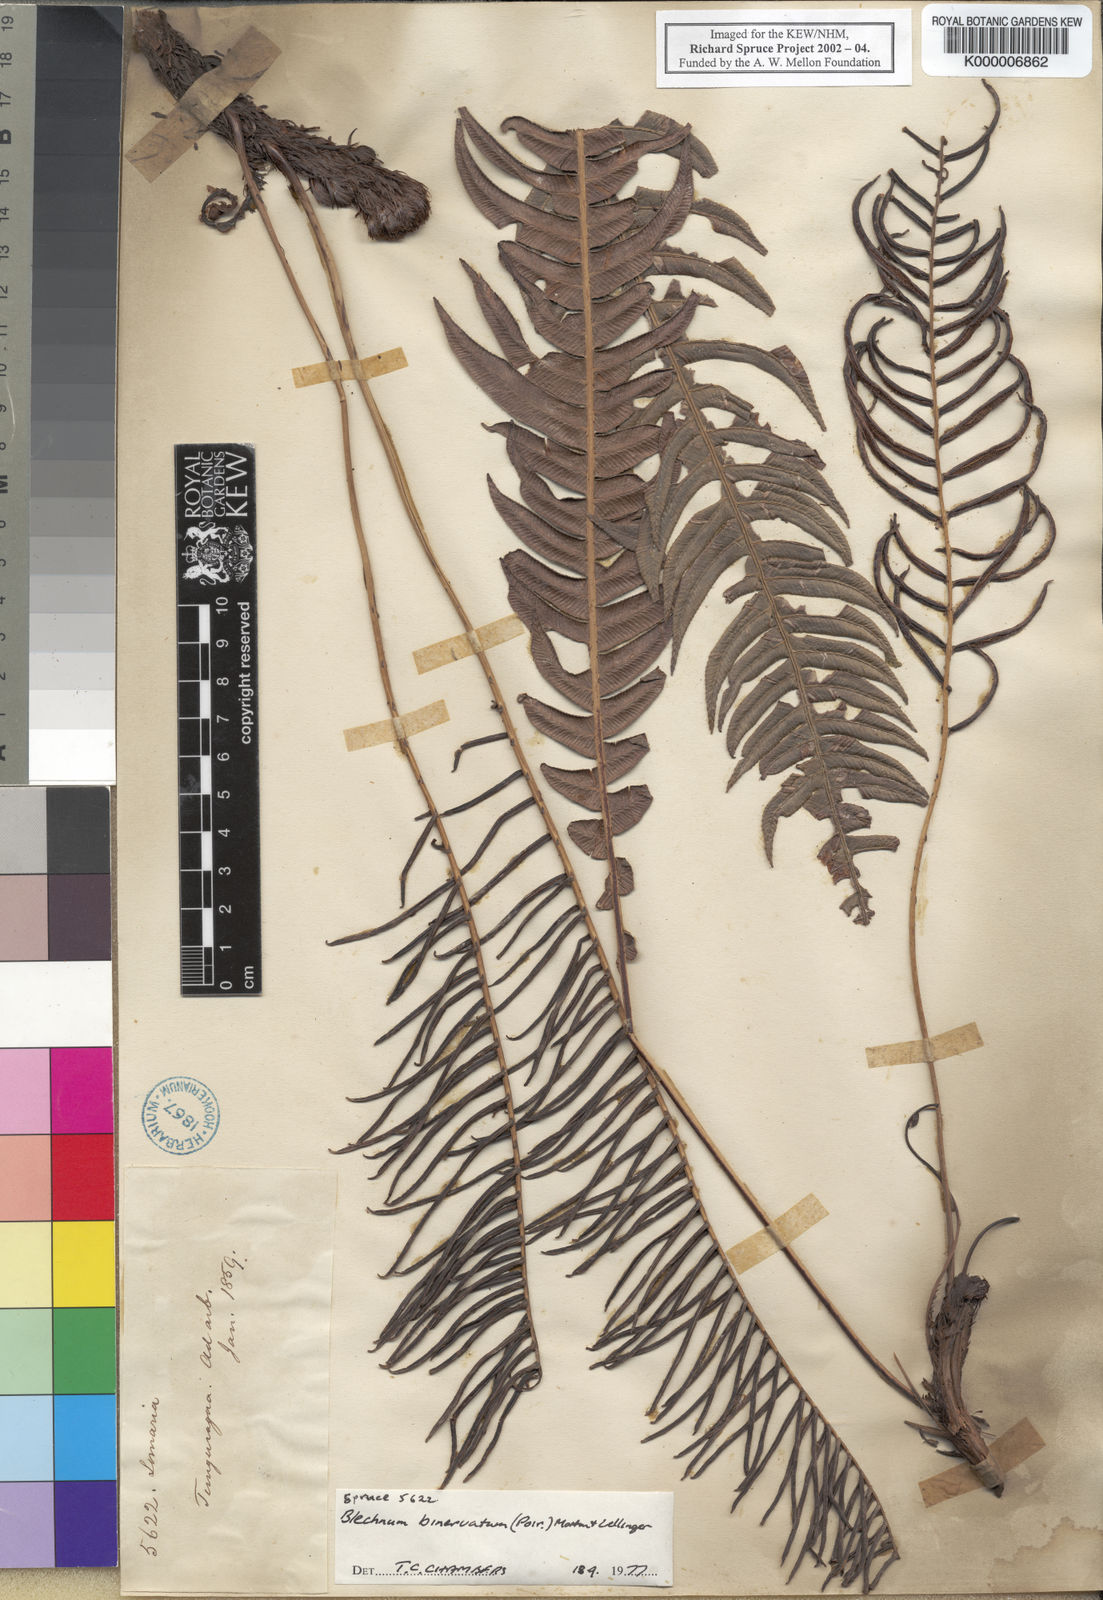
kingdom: Plantae
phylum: Tracheophyta
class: Polypodiopsida
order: Polypodiales
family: Blechnaceae
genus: Lomaridium
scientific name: Lomaridium binervatum
